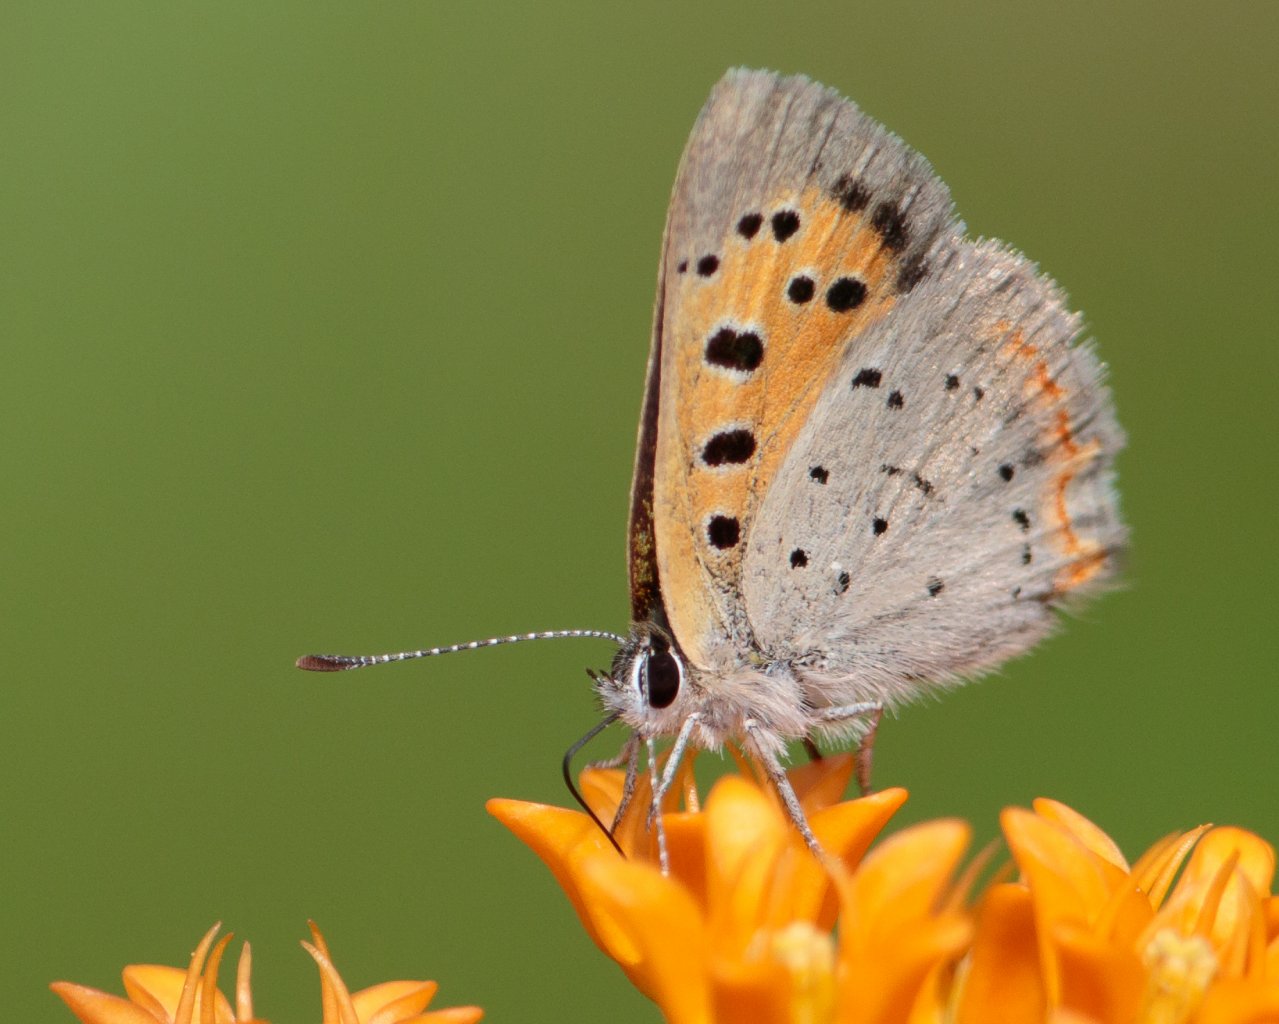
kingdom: Animalia
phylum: Arthropoda
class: Insecta
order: Lepidoptera
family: Lycaenidae
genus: Lycaena
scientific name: Lycaena phlaeas
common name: American Copper
